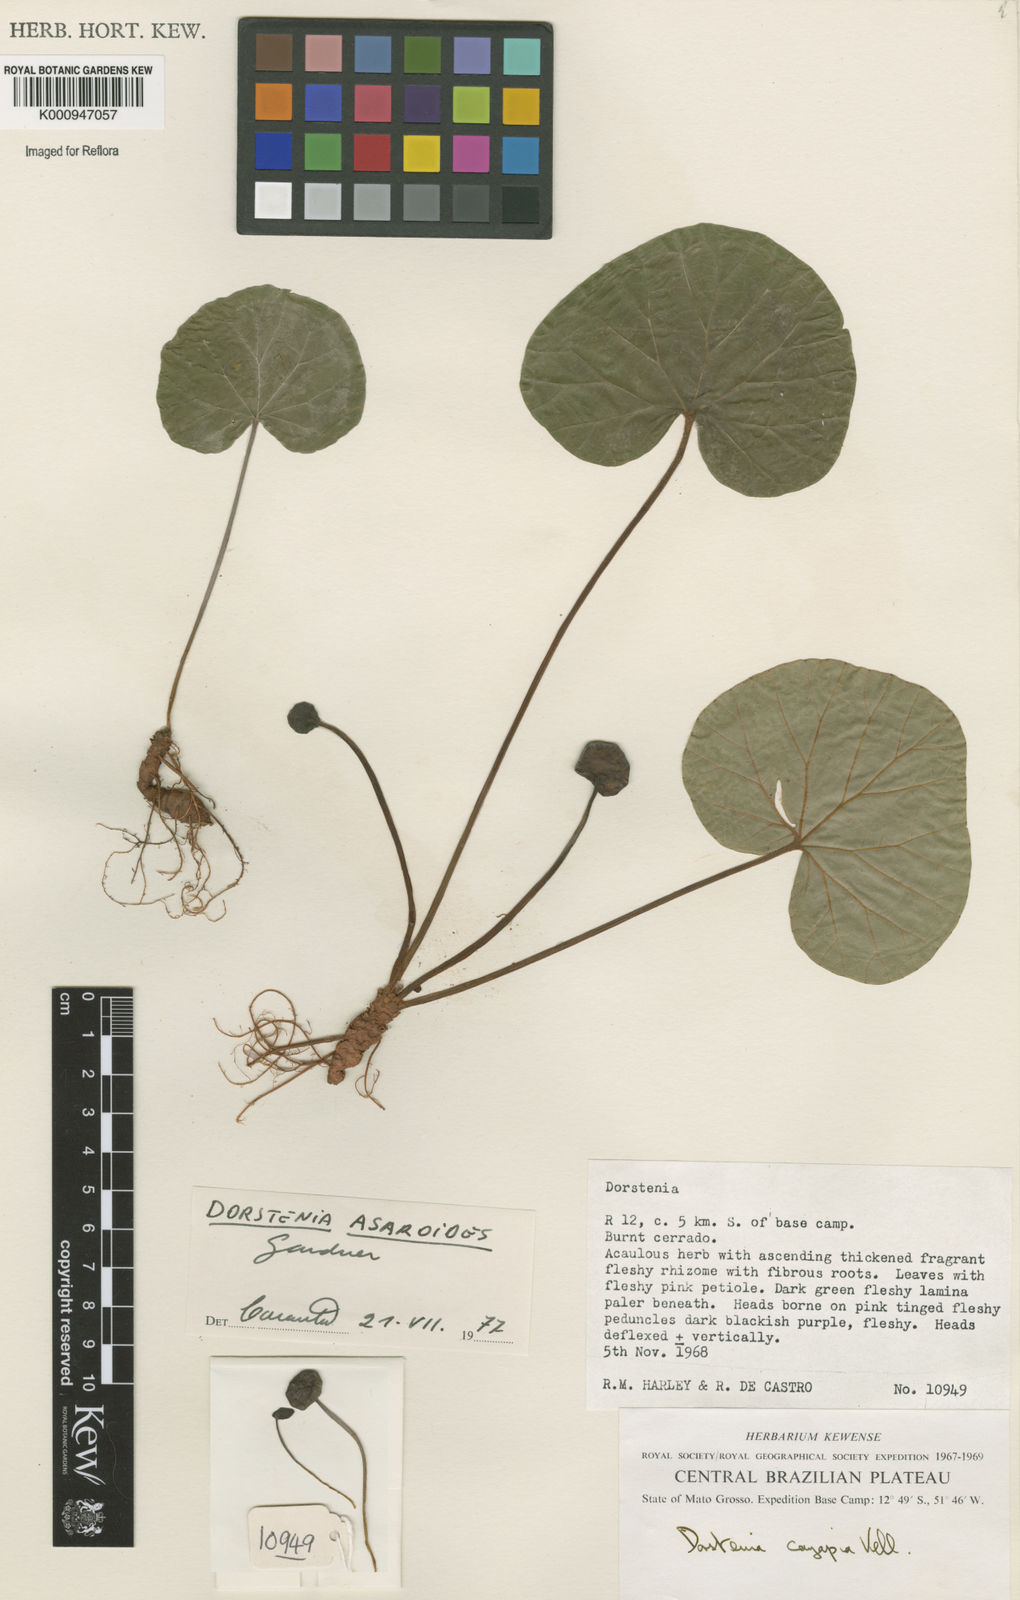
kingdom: Plantae
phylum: Tracheophyta
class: Magnoliopsida
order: Rosales
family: Moraceae
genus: Dorstenia
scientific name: Dorstenia
